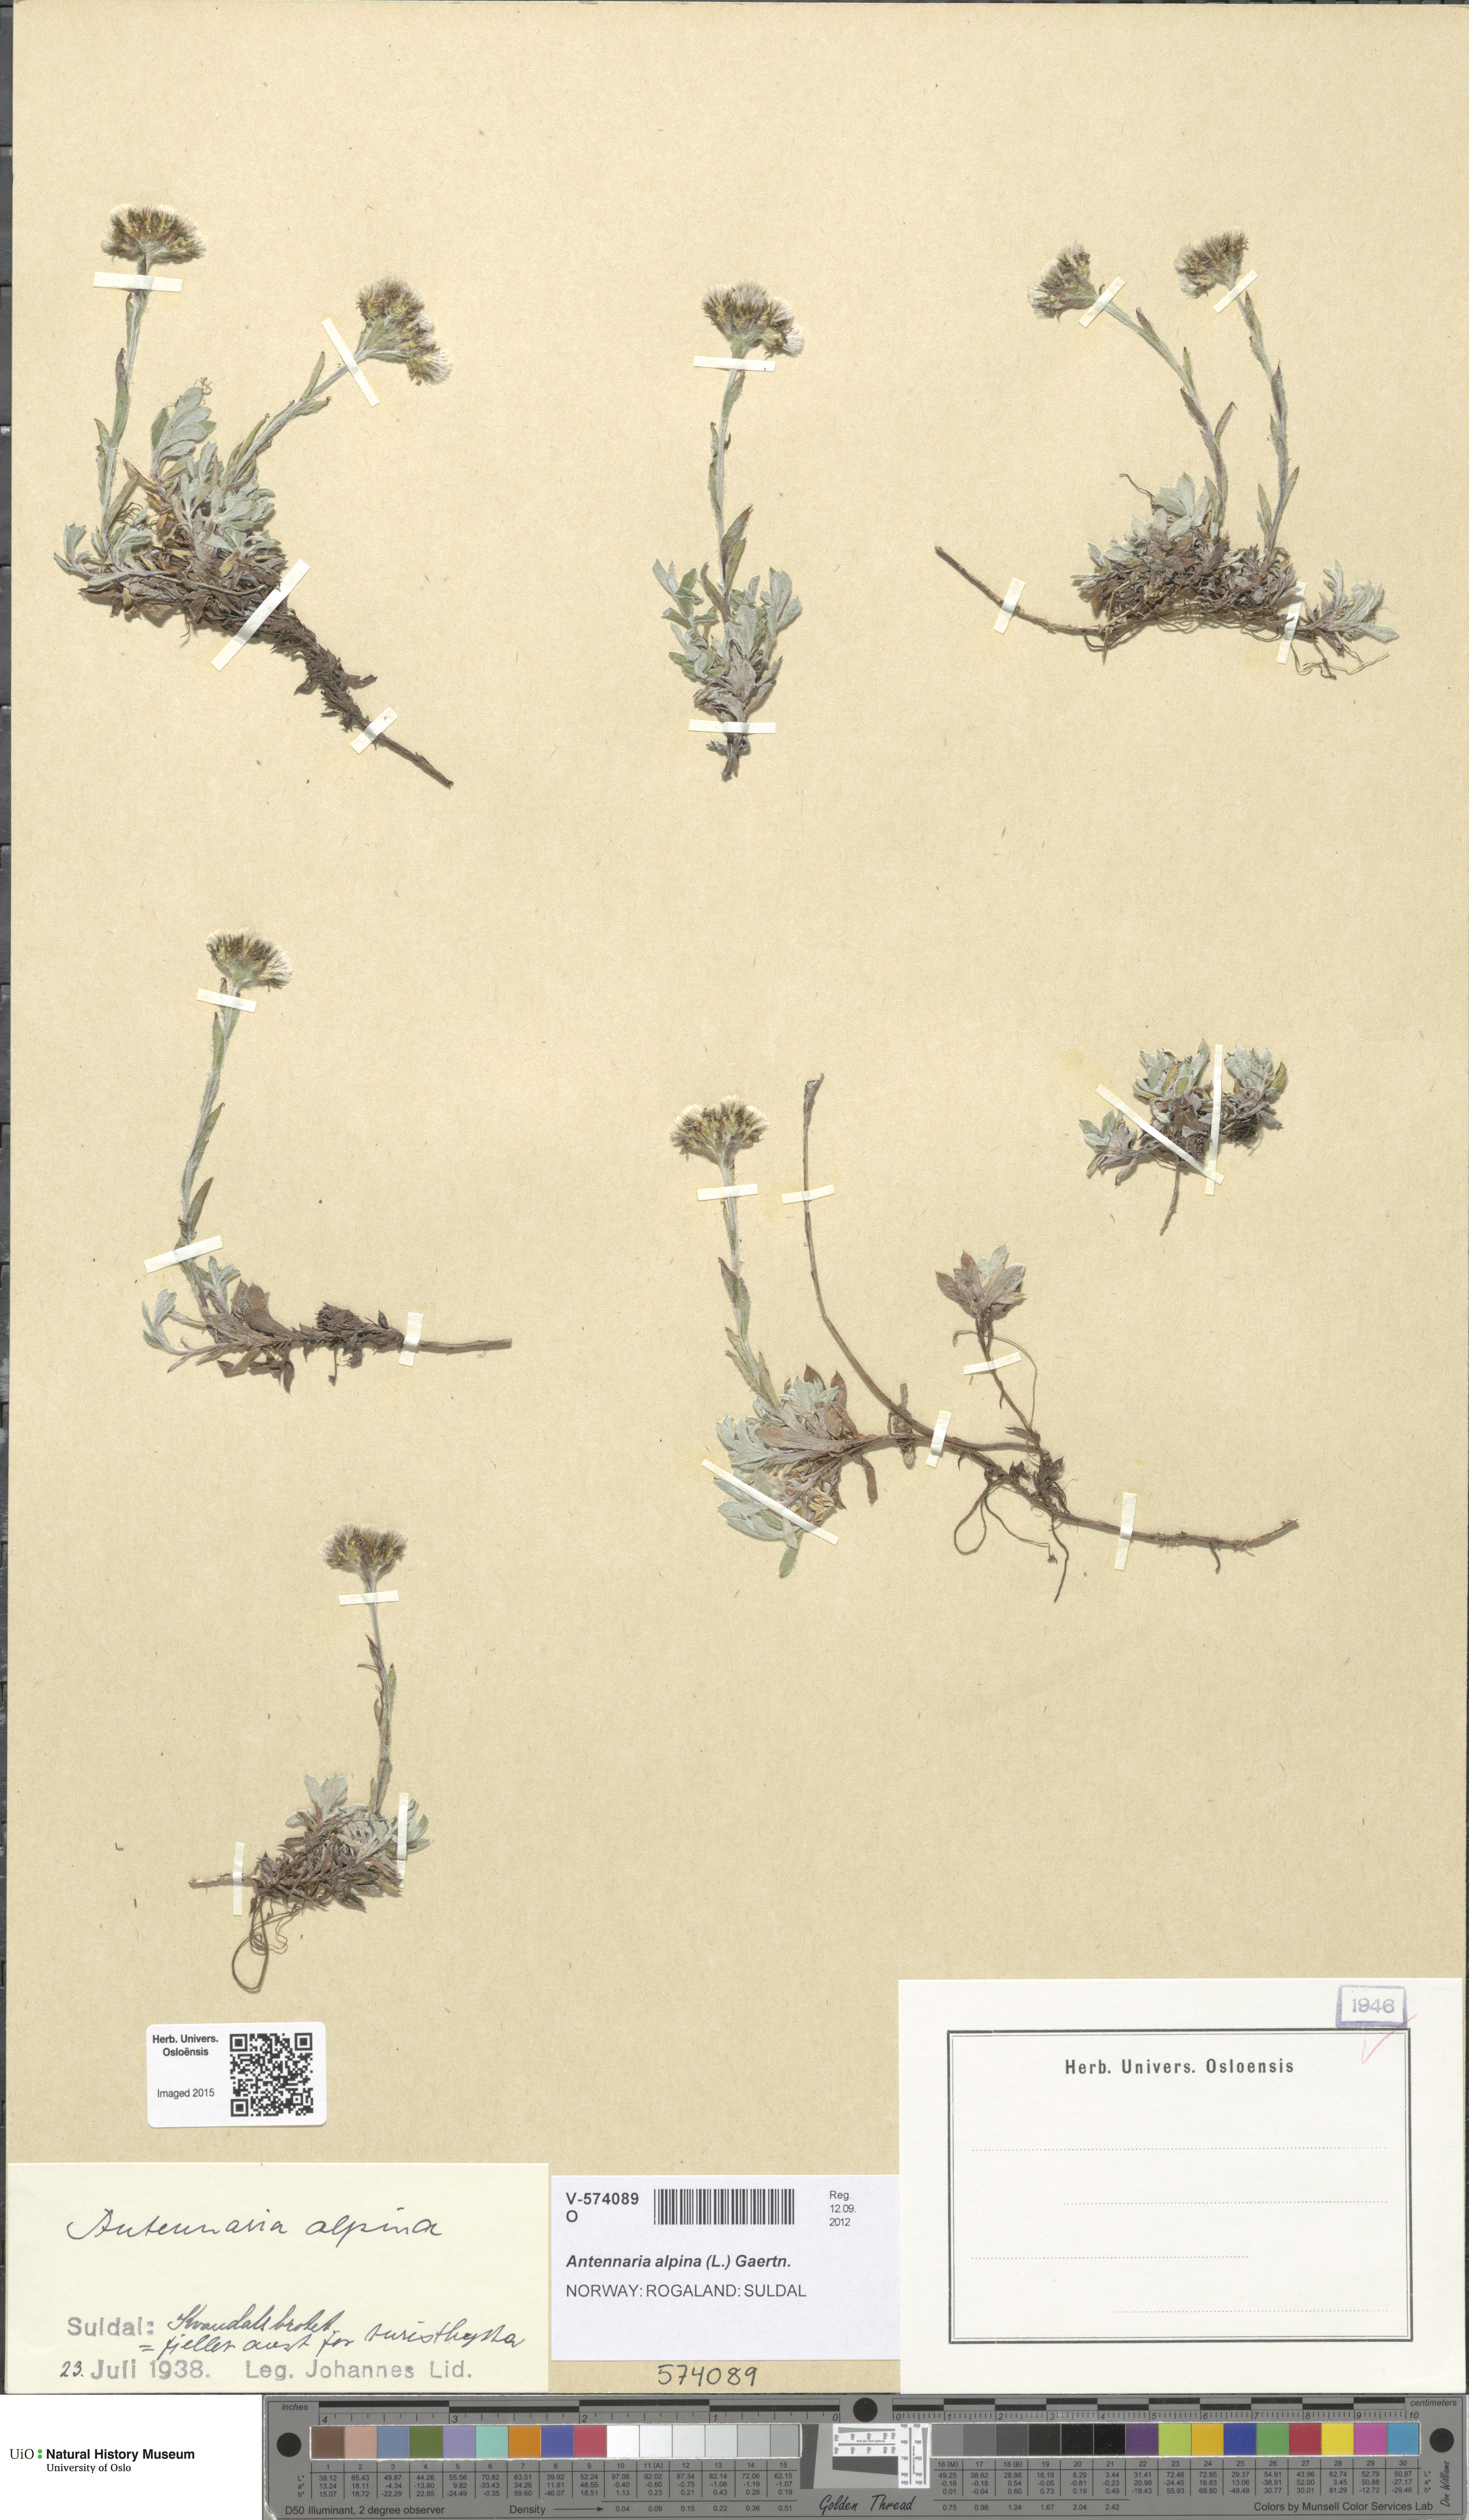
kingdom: Plantae
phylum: Tracheophyta
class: Magnoliopsida
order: Asterales
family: Asteraceae
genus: Antennaria
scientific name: Antennaria alpina
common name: Alpine pussytoes
